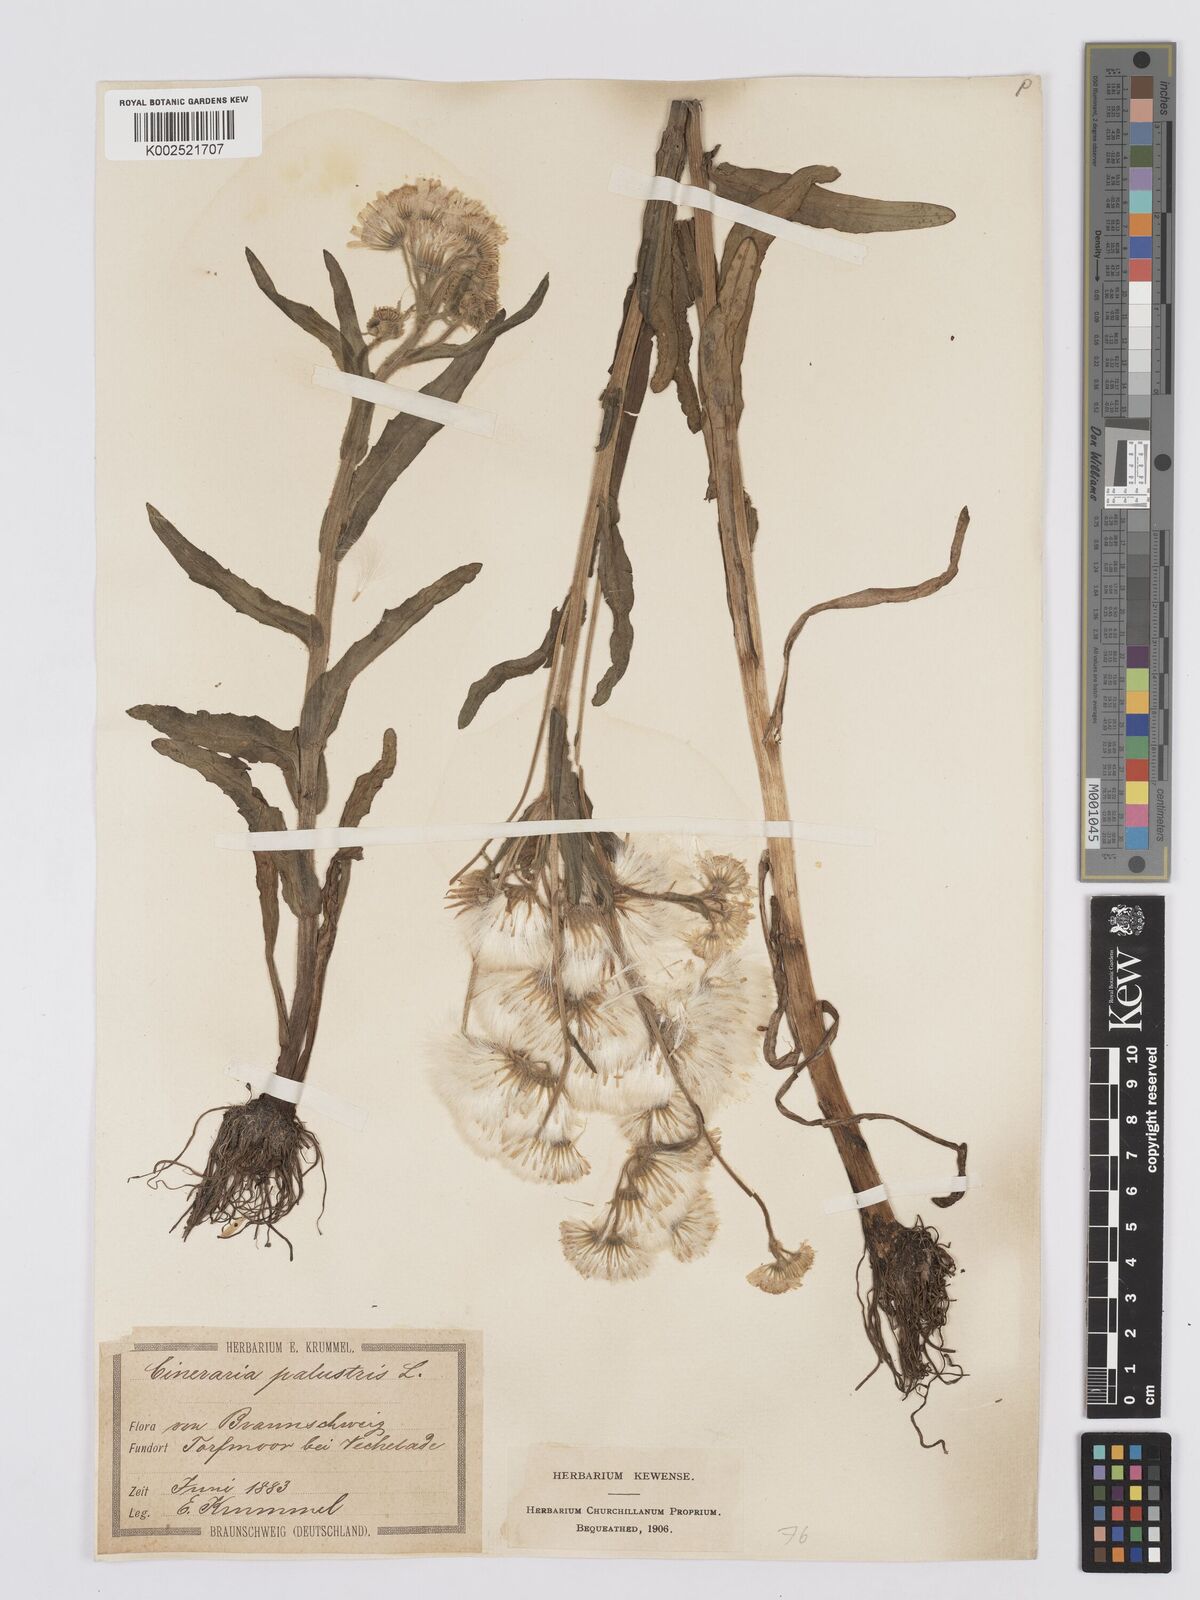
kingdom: Plantae
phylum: Tracheophyta
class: Magnoliopsida
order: Asterales
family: Asteraceae
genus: Tephroseris
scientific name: Tephroseris palustris
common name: Marsh fleawort
